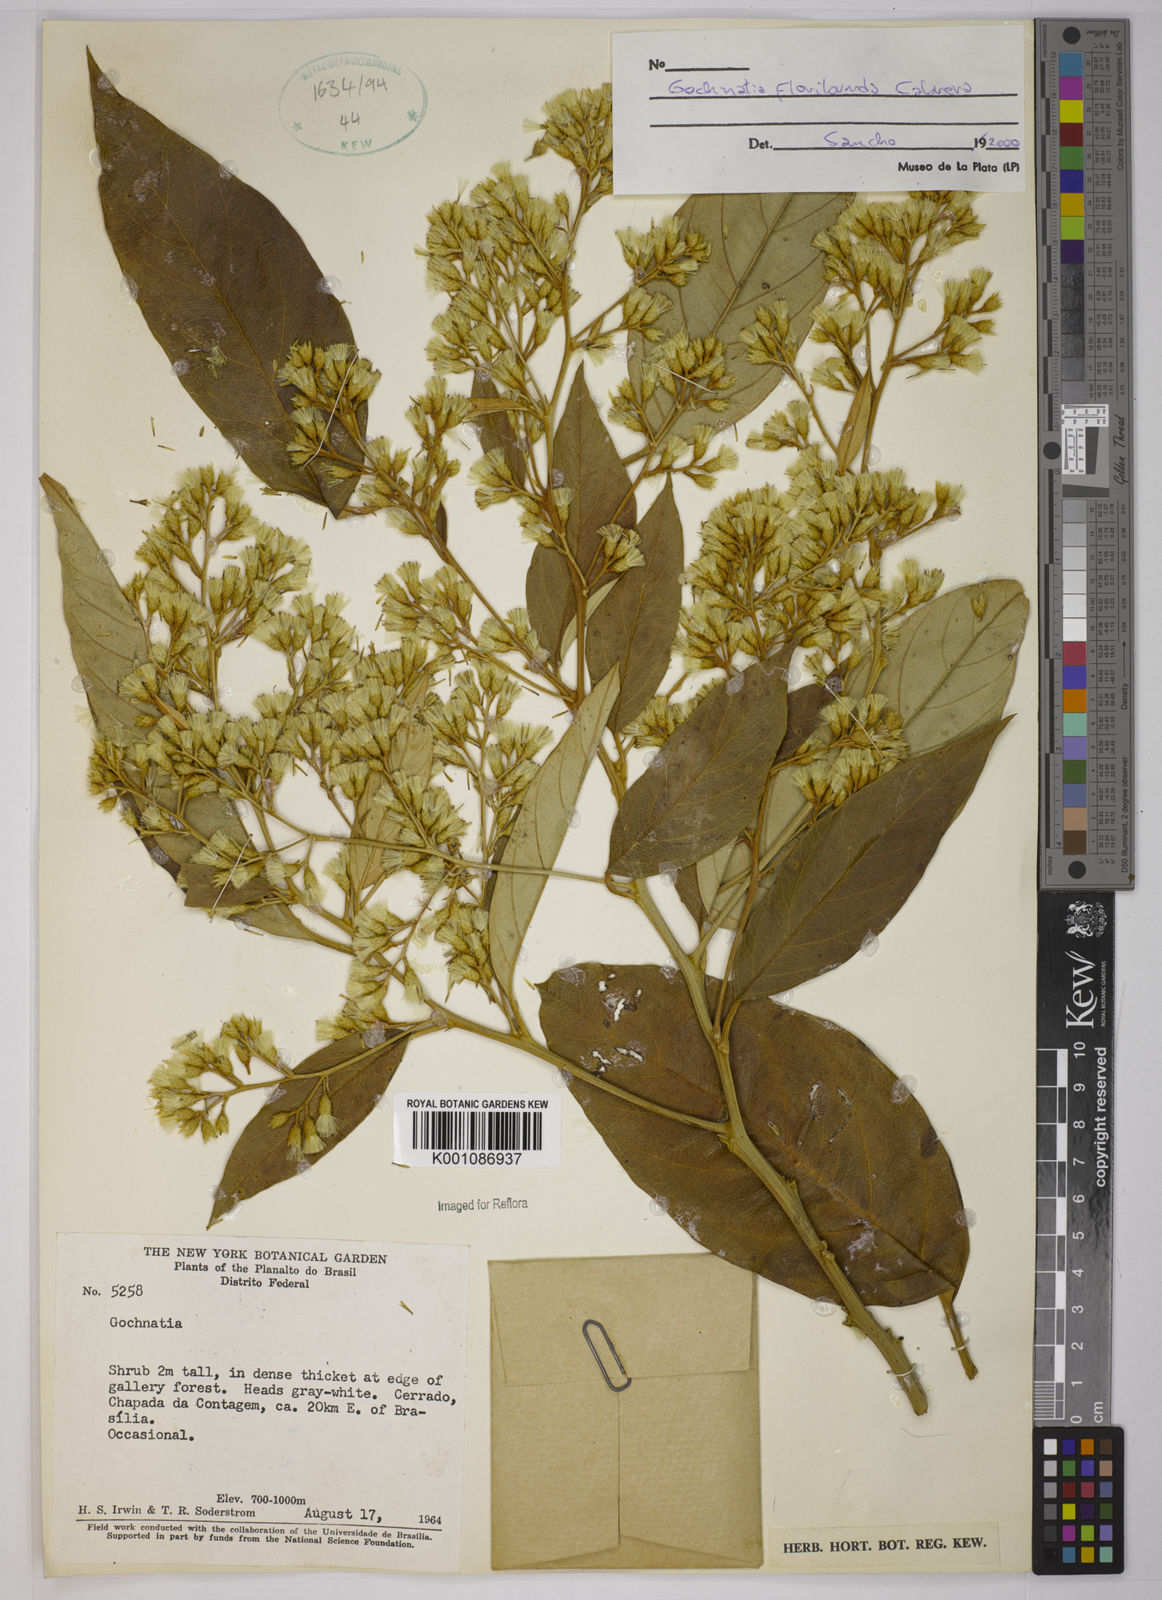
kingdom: Plantae
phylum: Tracheophyta
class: Magnoliopsida
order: Asterales
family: Asteraceae
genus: Moquiniastrum
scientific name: Moquiniastrum floribundum
